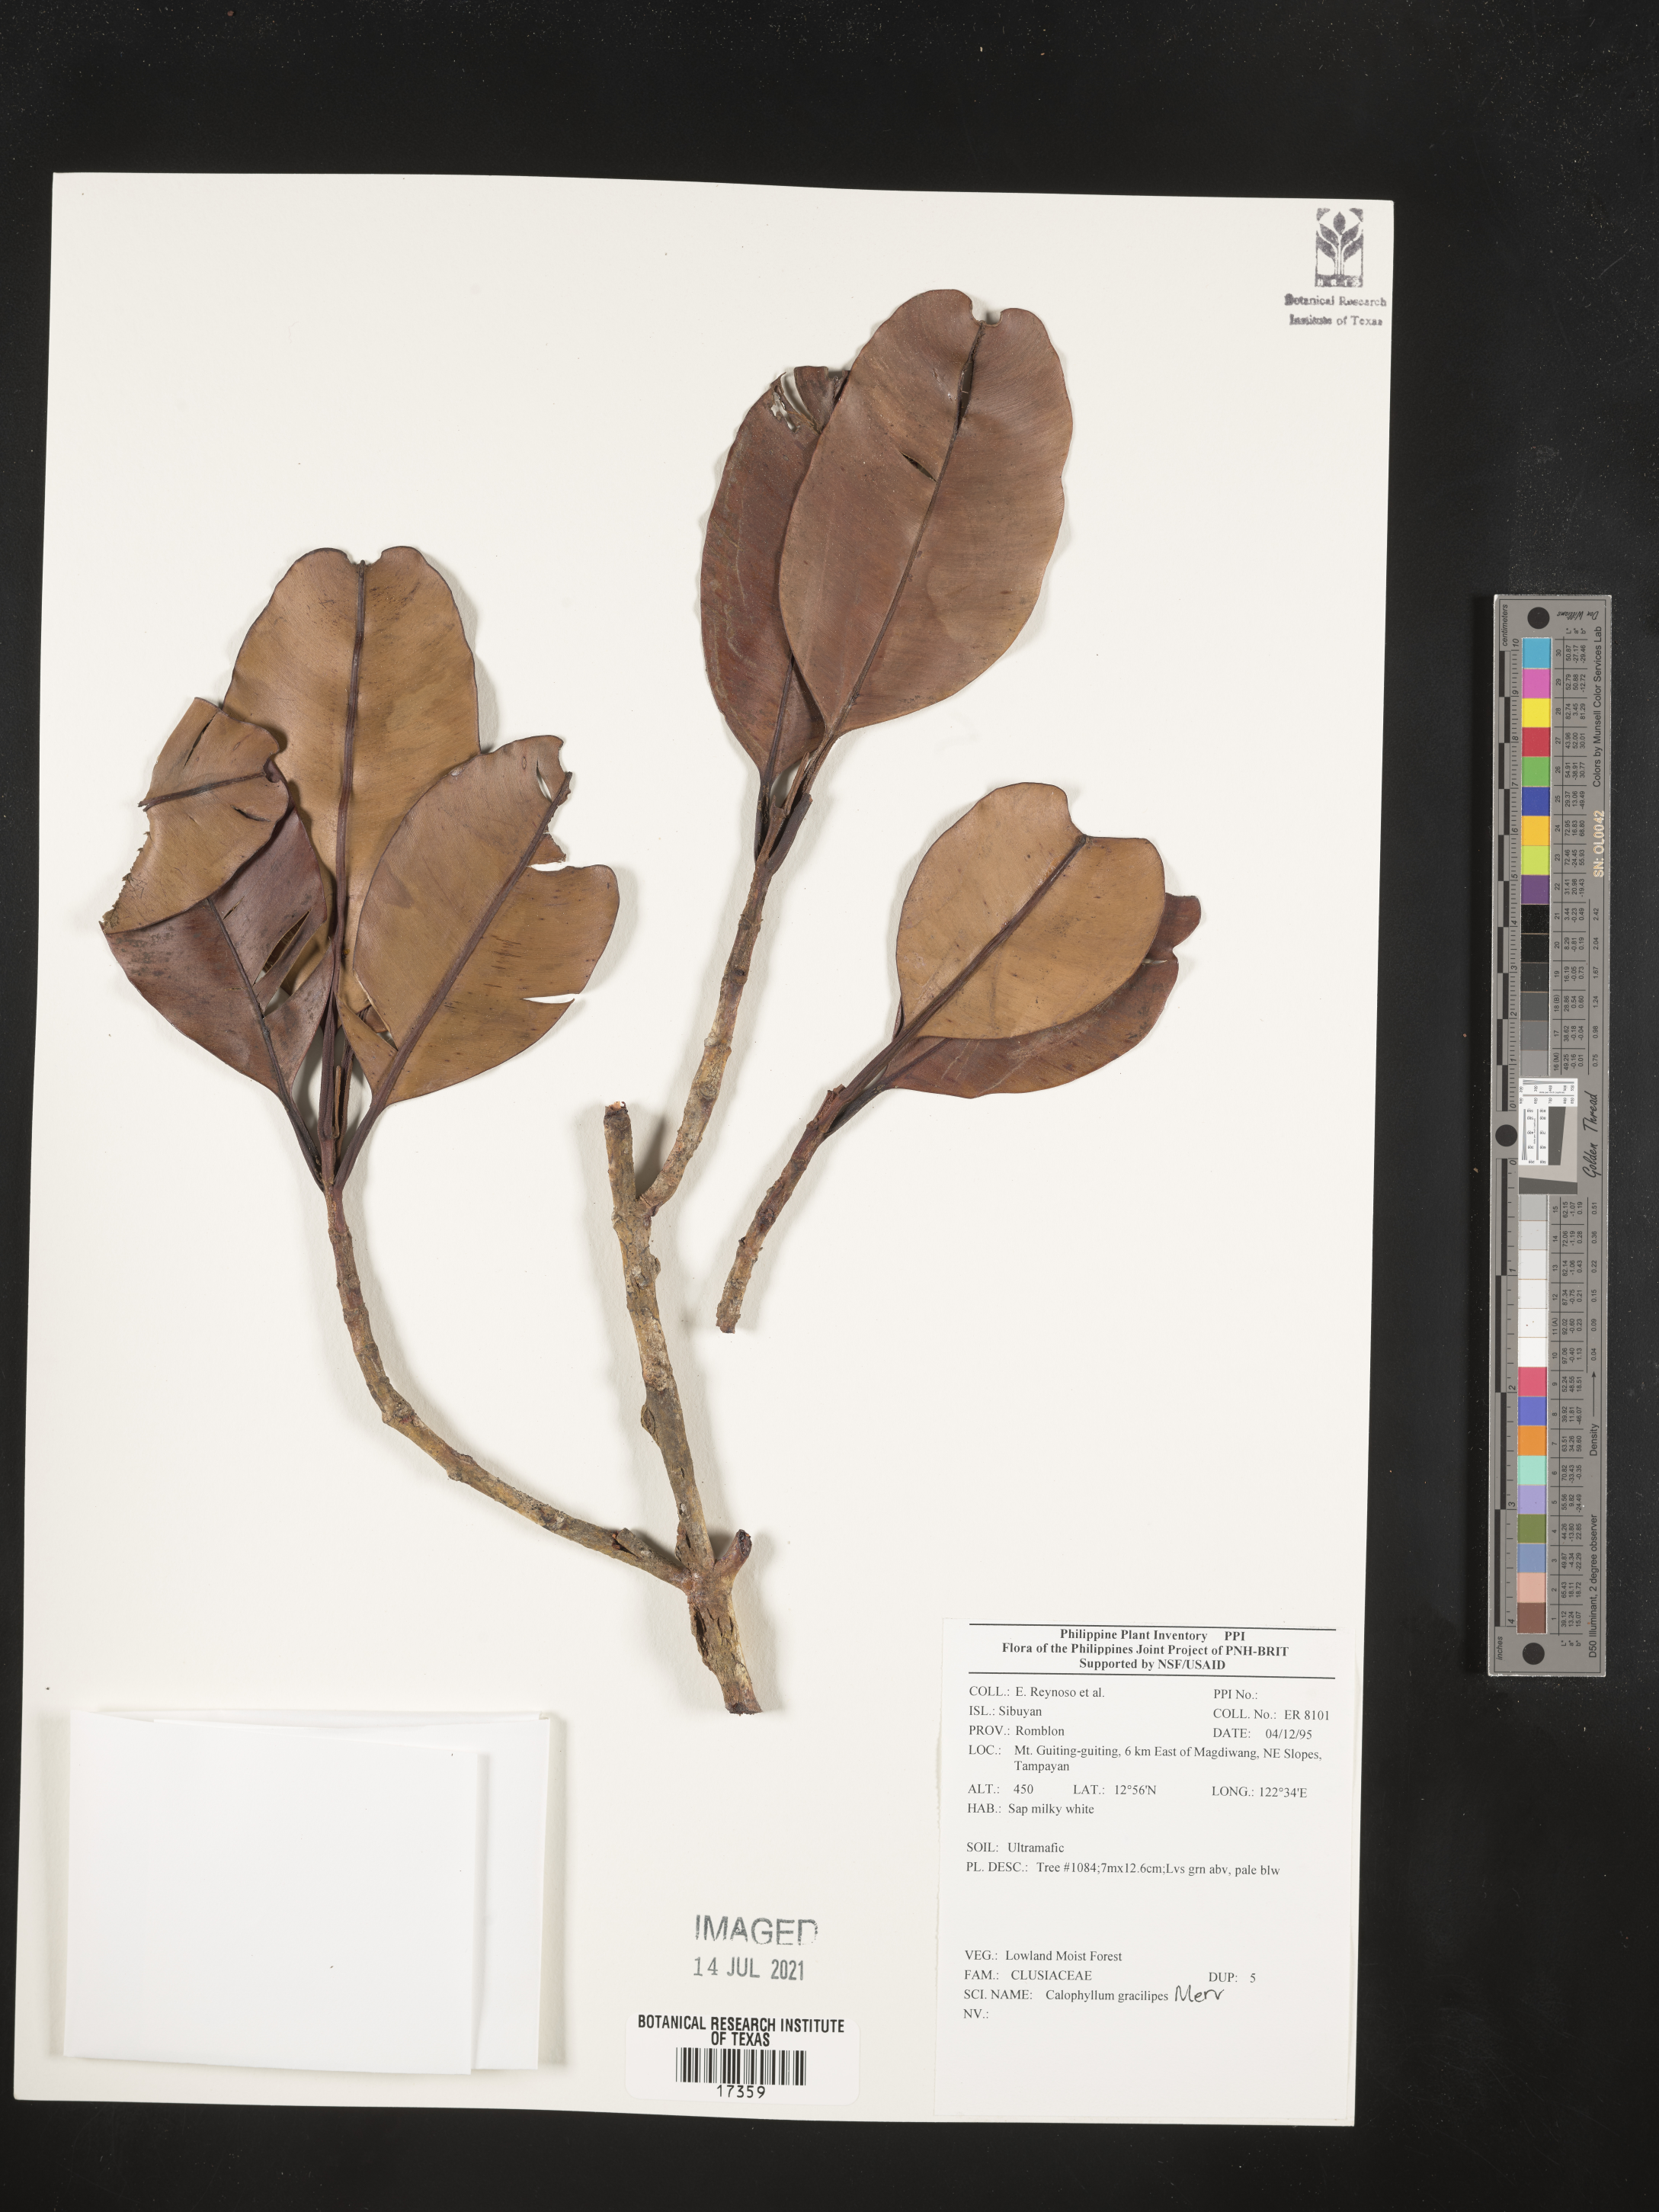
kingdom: Plantae
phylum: Tracheophyta
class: Magnoliopsida
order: Malpighiales
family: Calophyllaceae
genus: Calophyllum
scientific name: Calophyllum gracilipes
